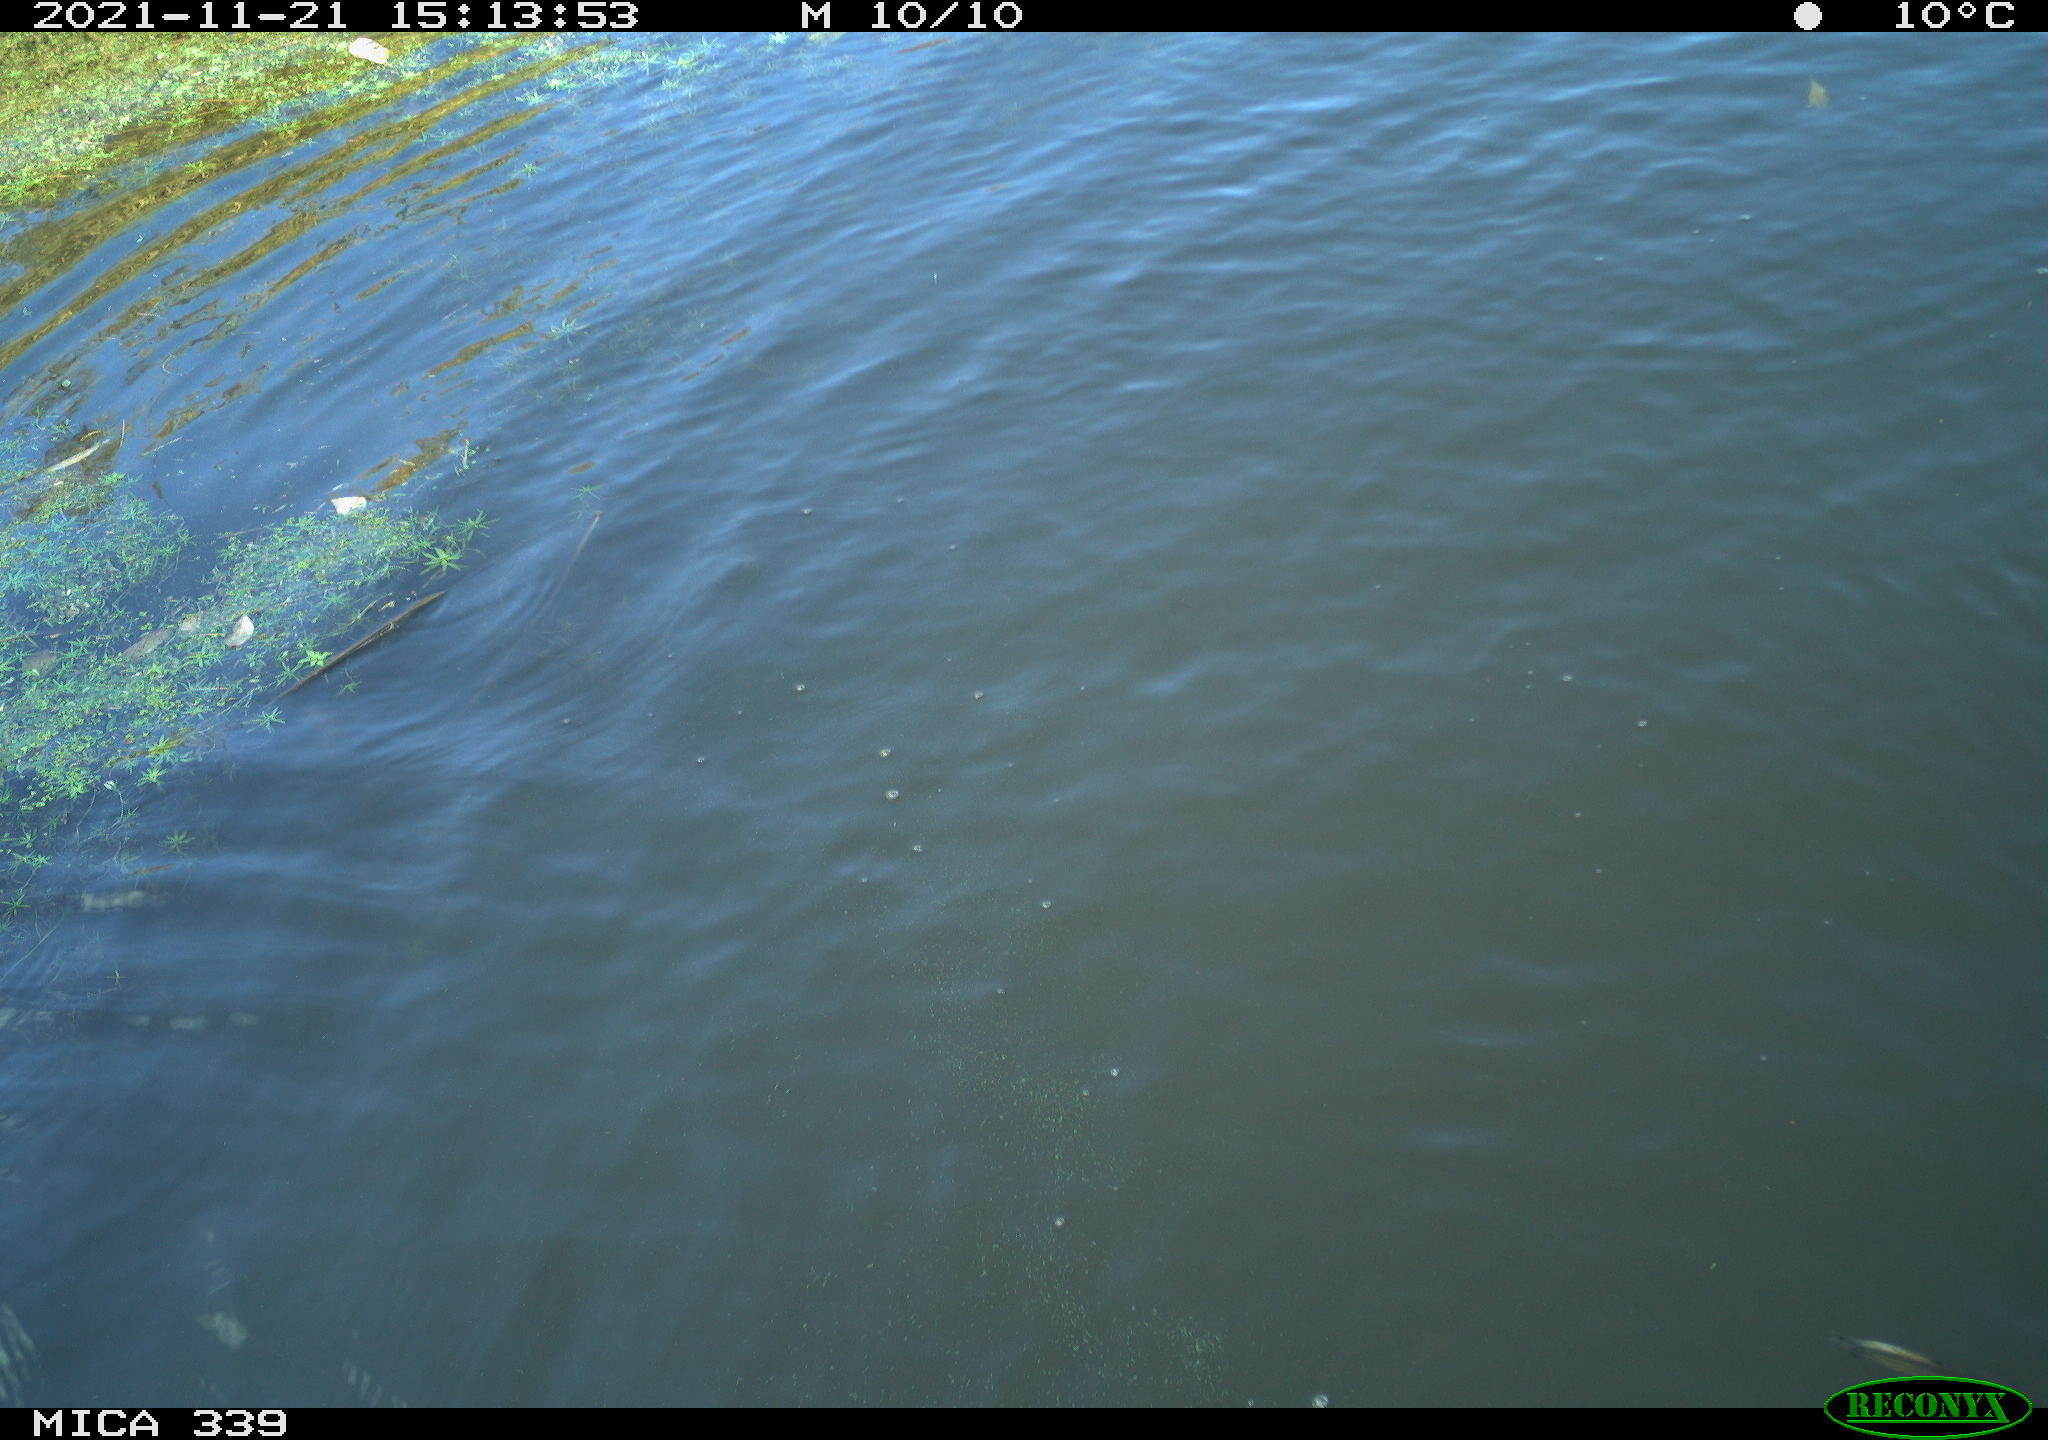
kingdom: Animalia
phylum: Chordata
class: Aves
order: Anseriformes
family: Anatidae
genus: Anas
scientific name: Anas platyrhynchos
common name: Mallard
